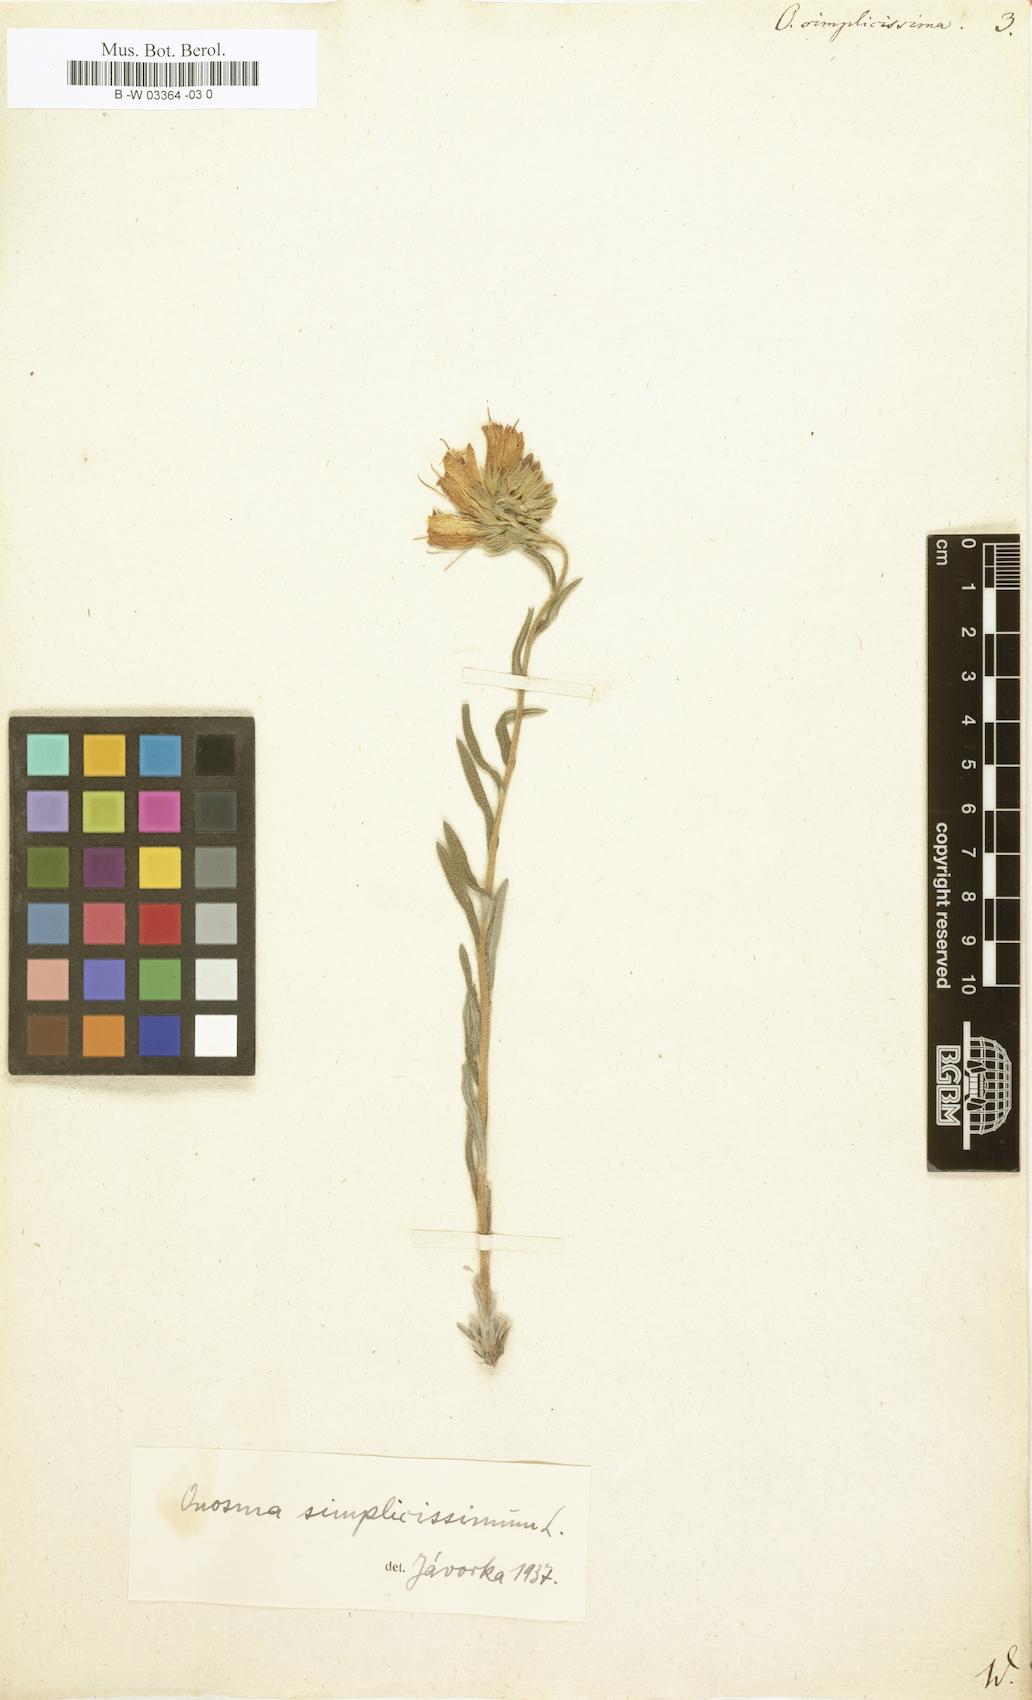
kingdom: Plantae
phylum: Tracheophyta
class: Magnoliopsida
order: Boraginales
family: Boraginaceae
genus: Onosma
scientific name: Onosma simplicissima
